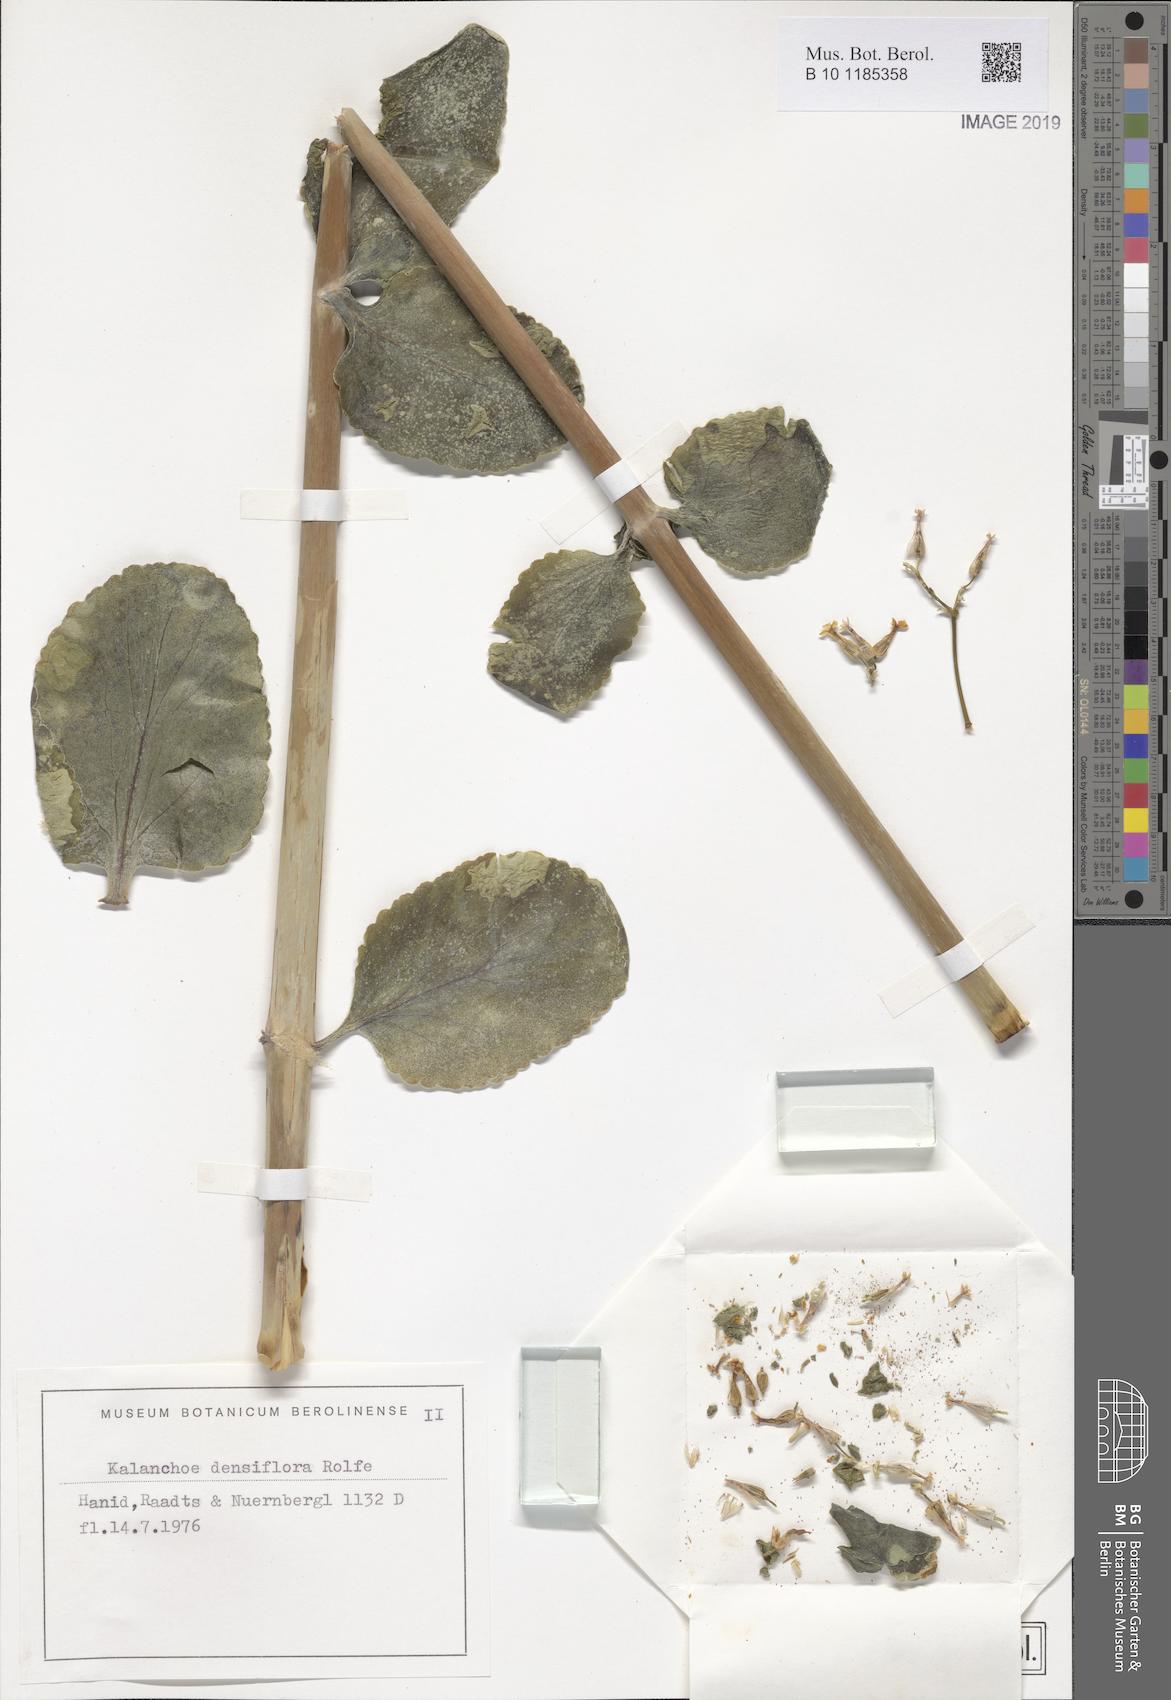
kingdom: Plantae
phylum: Tracheophyta
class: Magnoliopsida
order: Saxifragales
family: Crassulaceae
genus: Kalanchoe
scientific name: Kalanchoe densiflora
